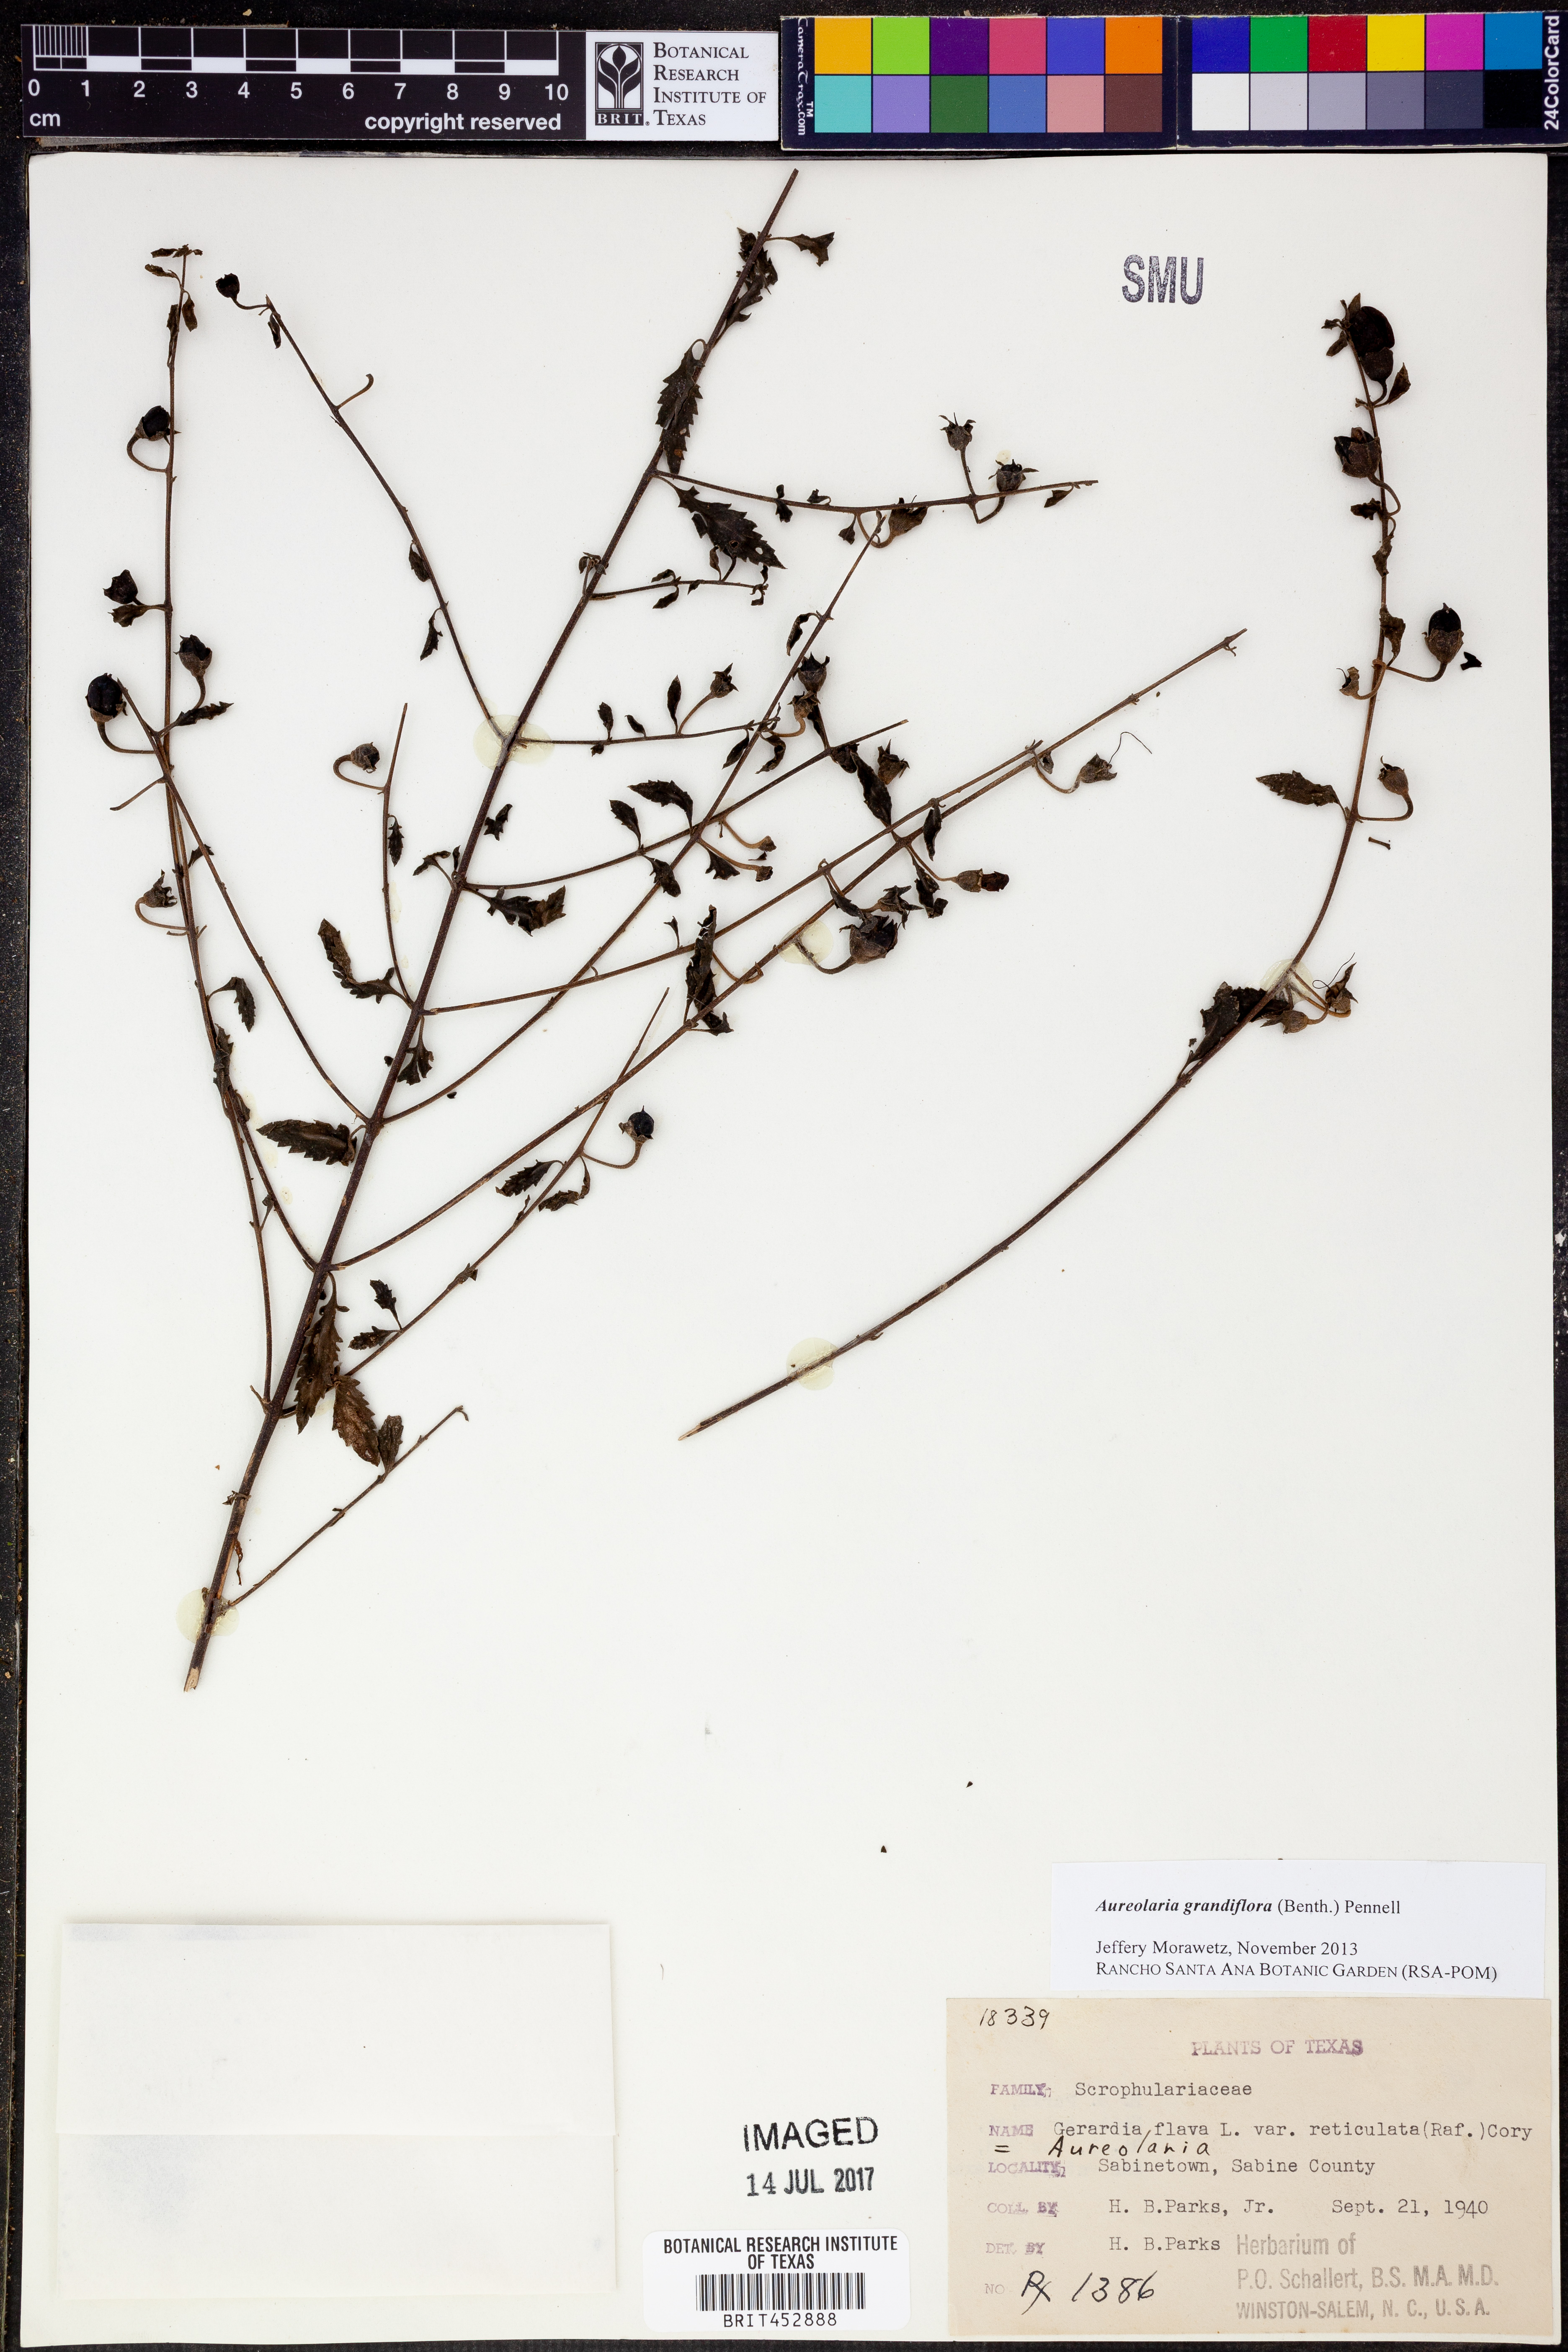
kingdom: Plantae
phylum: Tracheophyta
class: Magnoliopsida
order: Lamiales
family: Orobanchaceae
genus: Aureolaria
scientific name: Aureolaria grandiflora
